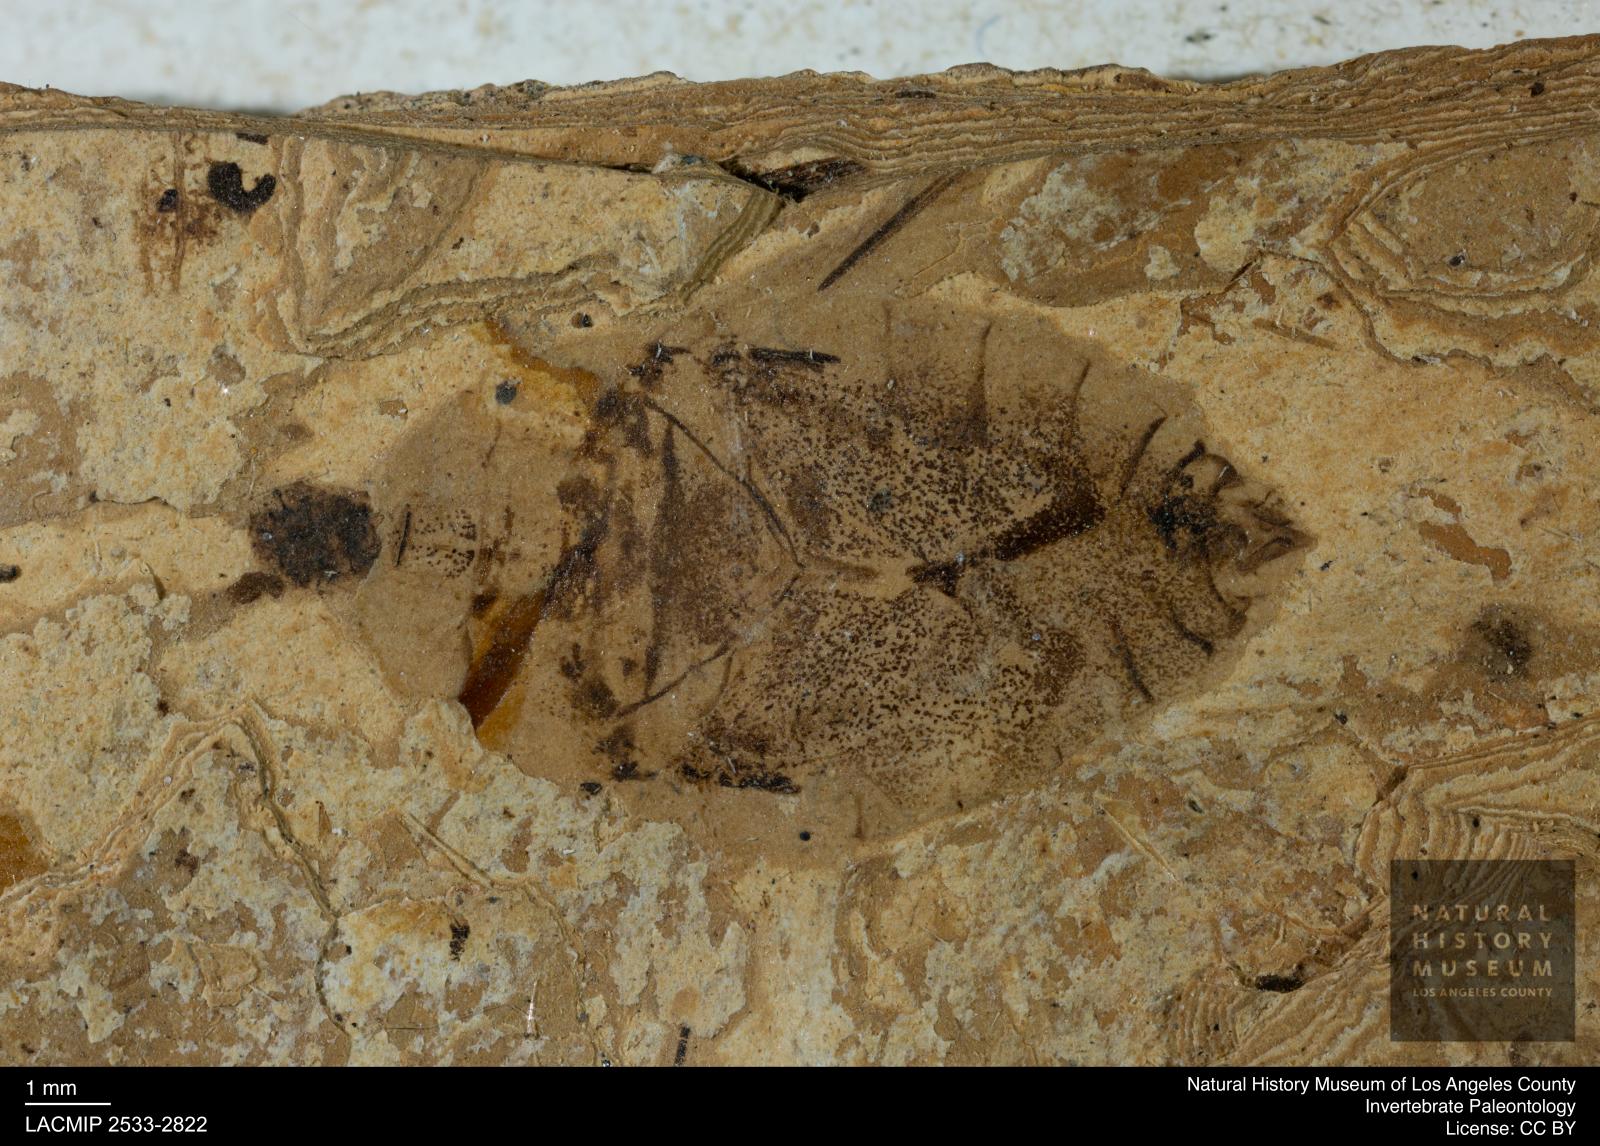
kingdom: Animalia
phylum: Arthropoda
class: Insecta
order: Hemiptera
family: Naucoridae
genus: Naucoris
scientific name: Naucoris rottensis
